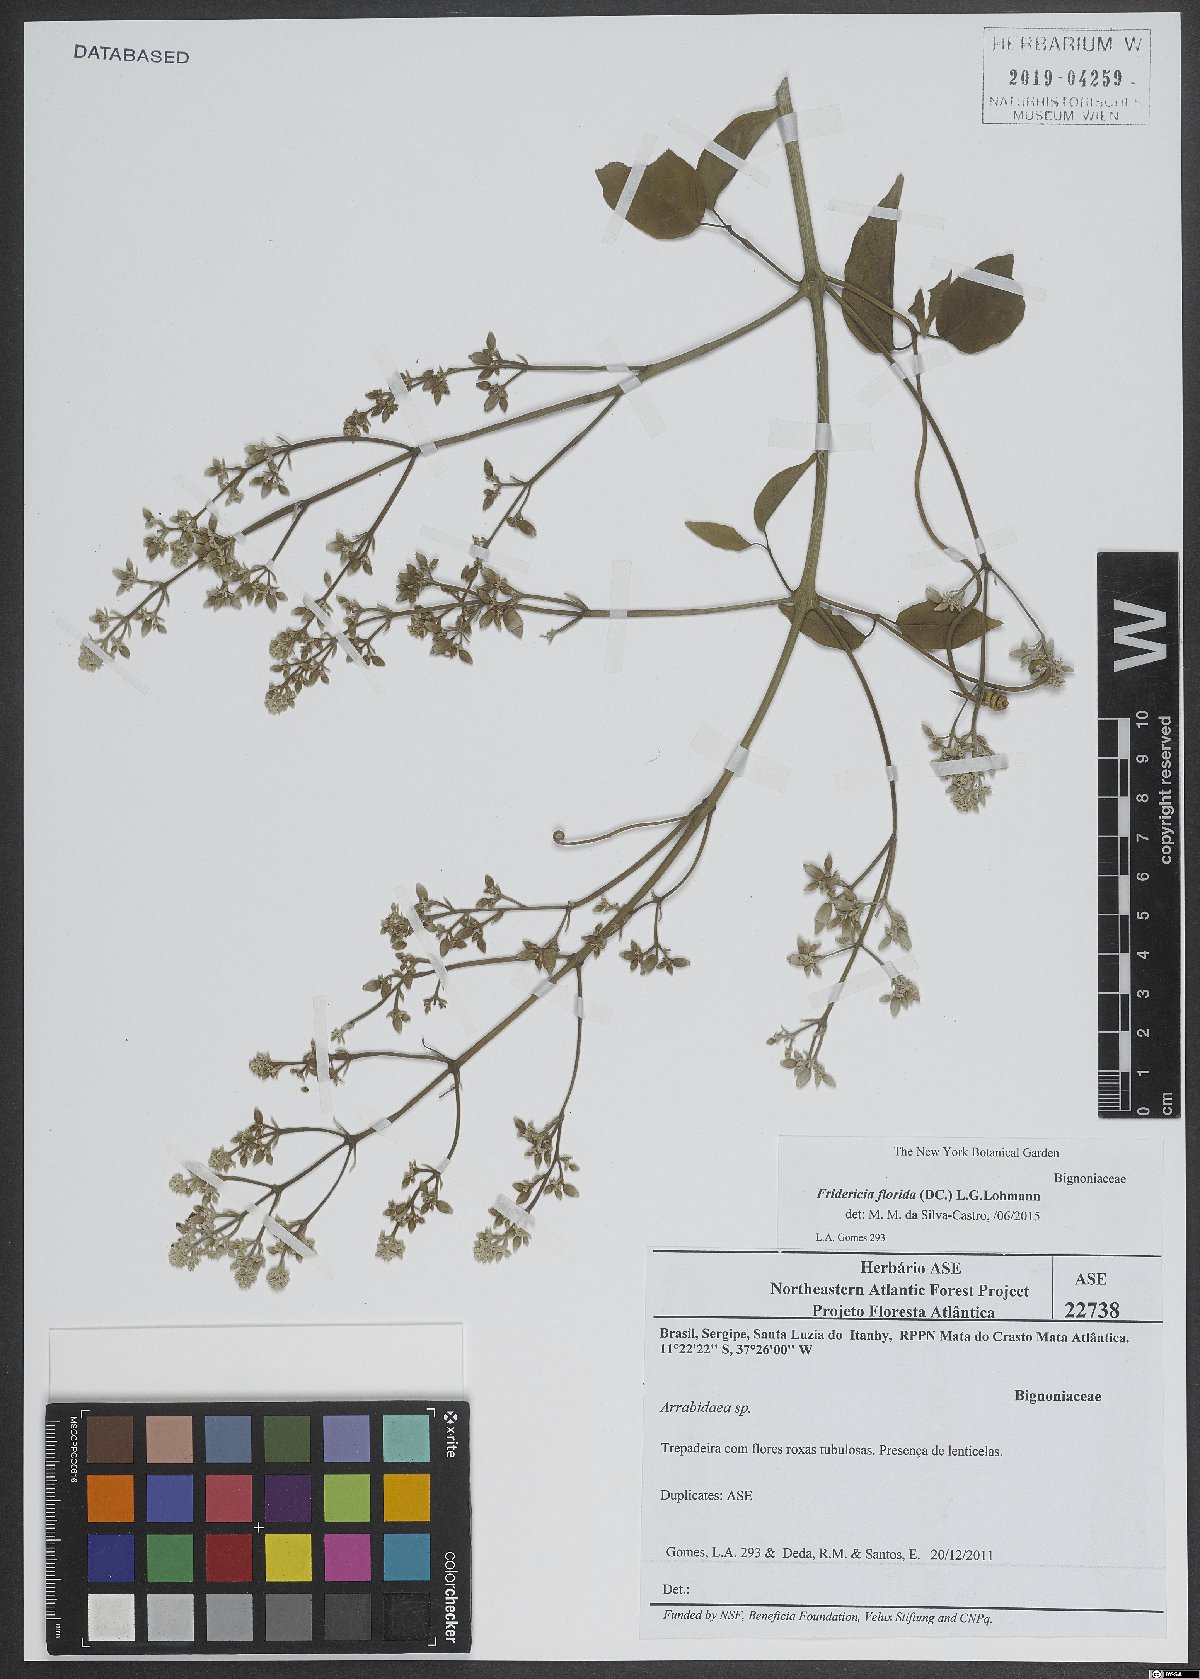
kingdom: Plantae
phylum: Tracheophyta
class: Magnoliopsida
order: Lamiales
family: Bignoniaceae
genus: Fridericia
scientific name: Fridericia florida
